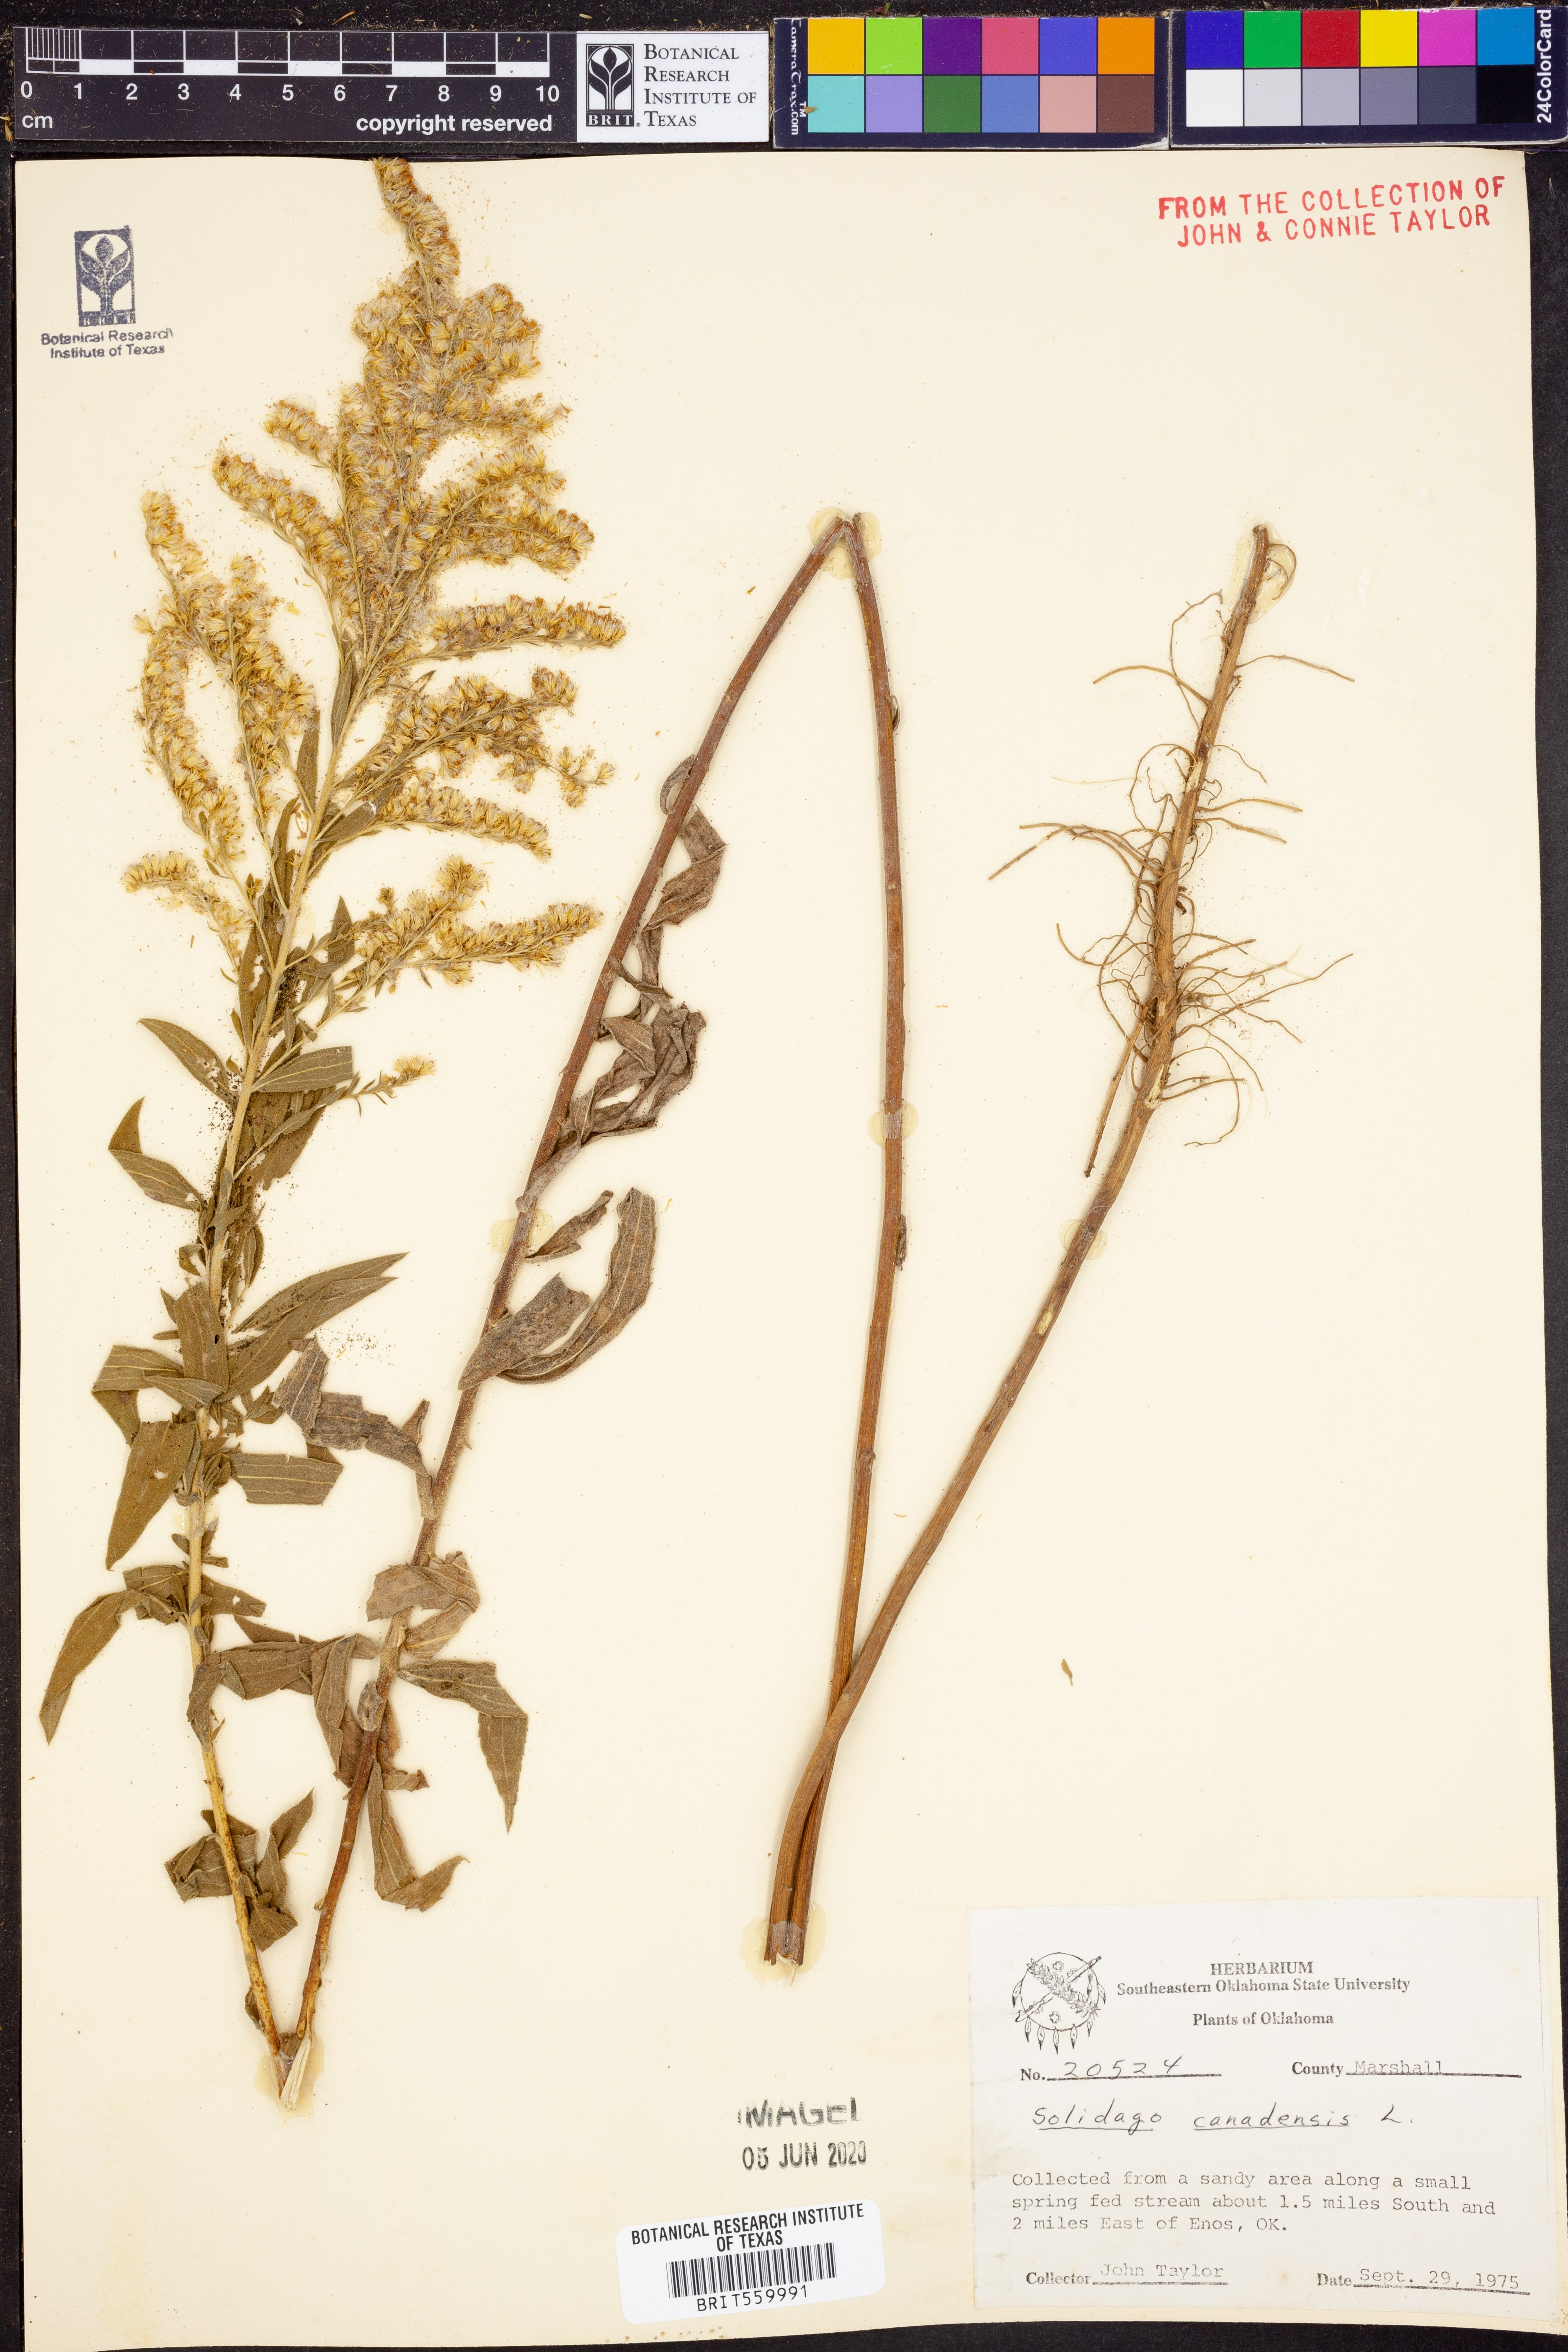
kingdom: Plantae
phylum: Tracheophyta
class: Magnoliopsida
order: Asterales
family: Asteraceae
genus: Solidago
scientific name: Solidago canadensis
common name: Canada goldenrod
